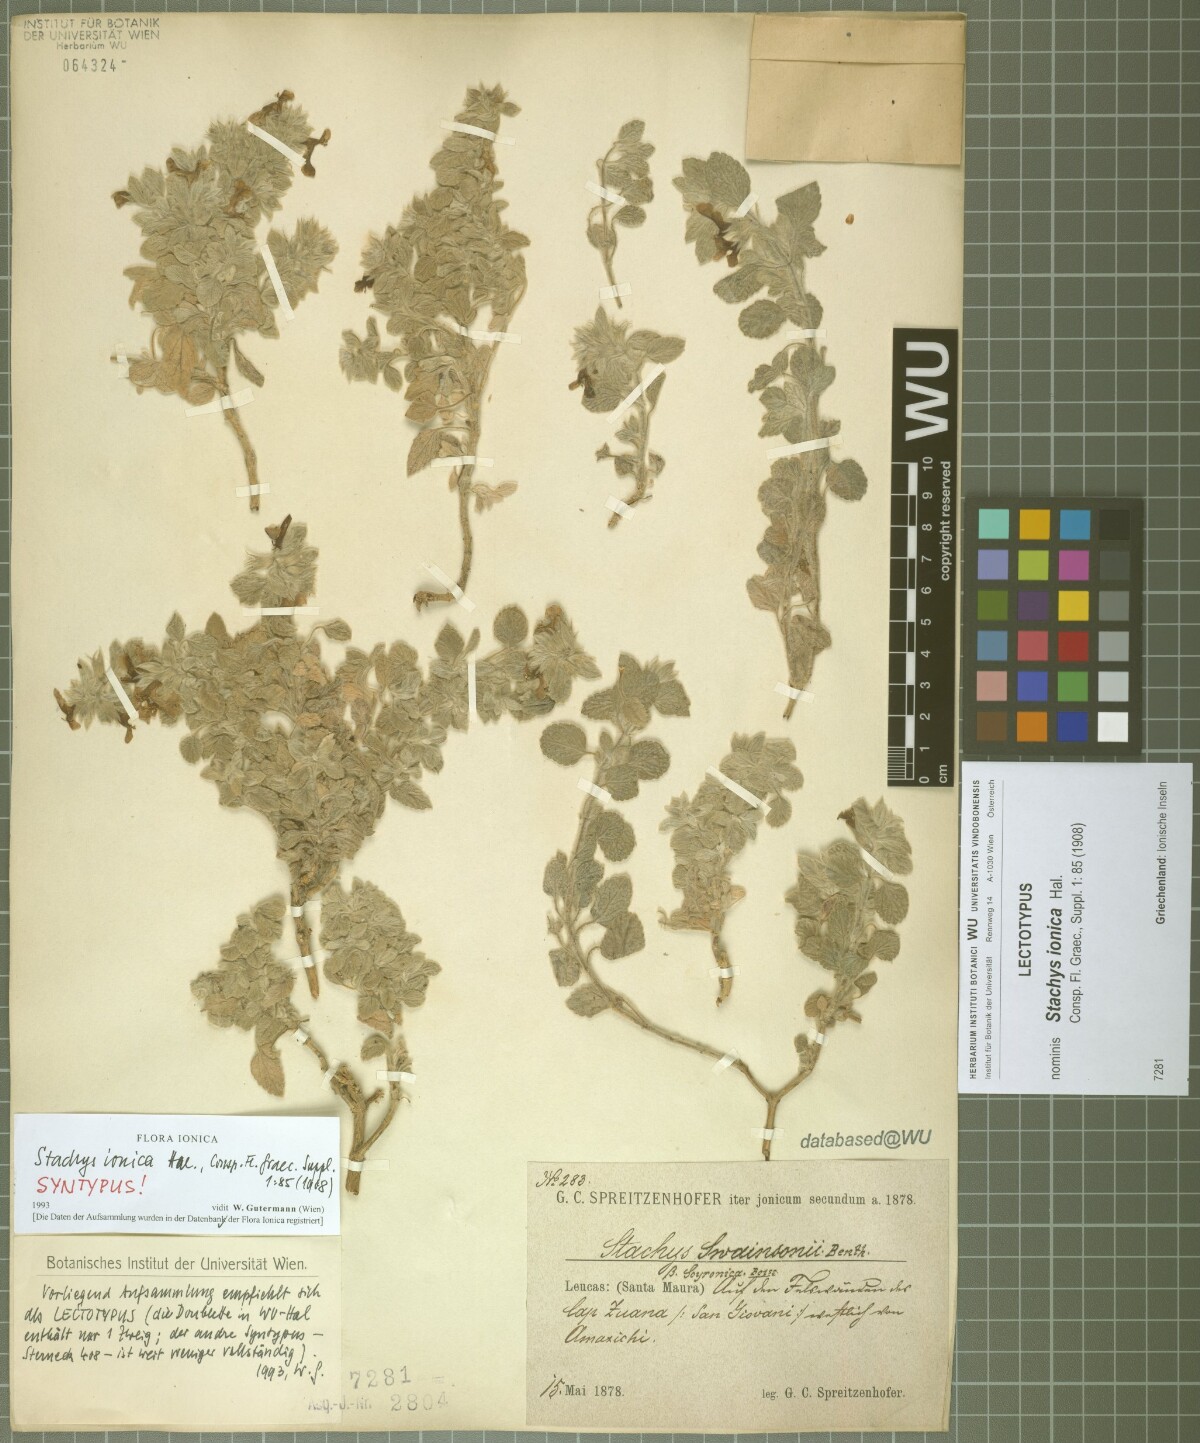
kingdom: Plantae
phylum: Tracheophyta
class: Magnoliopsida
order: Lamiales
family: Lamiaceae
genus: Stachys
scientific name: Stachys ionica
